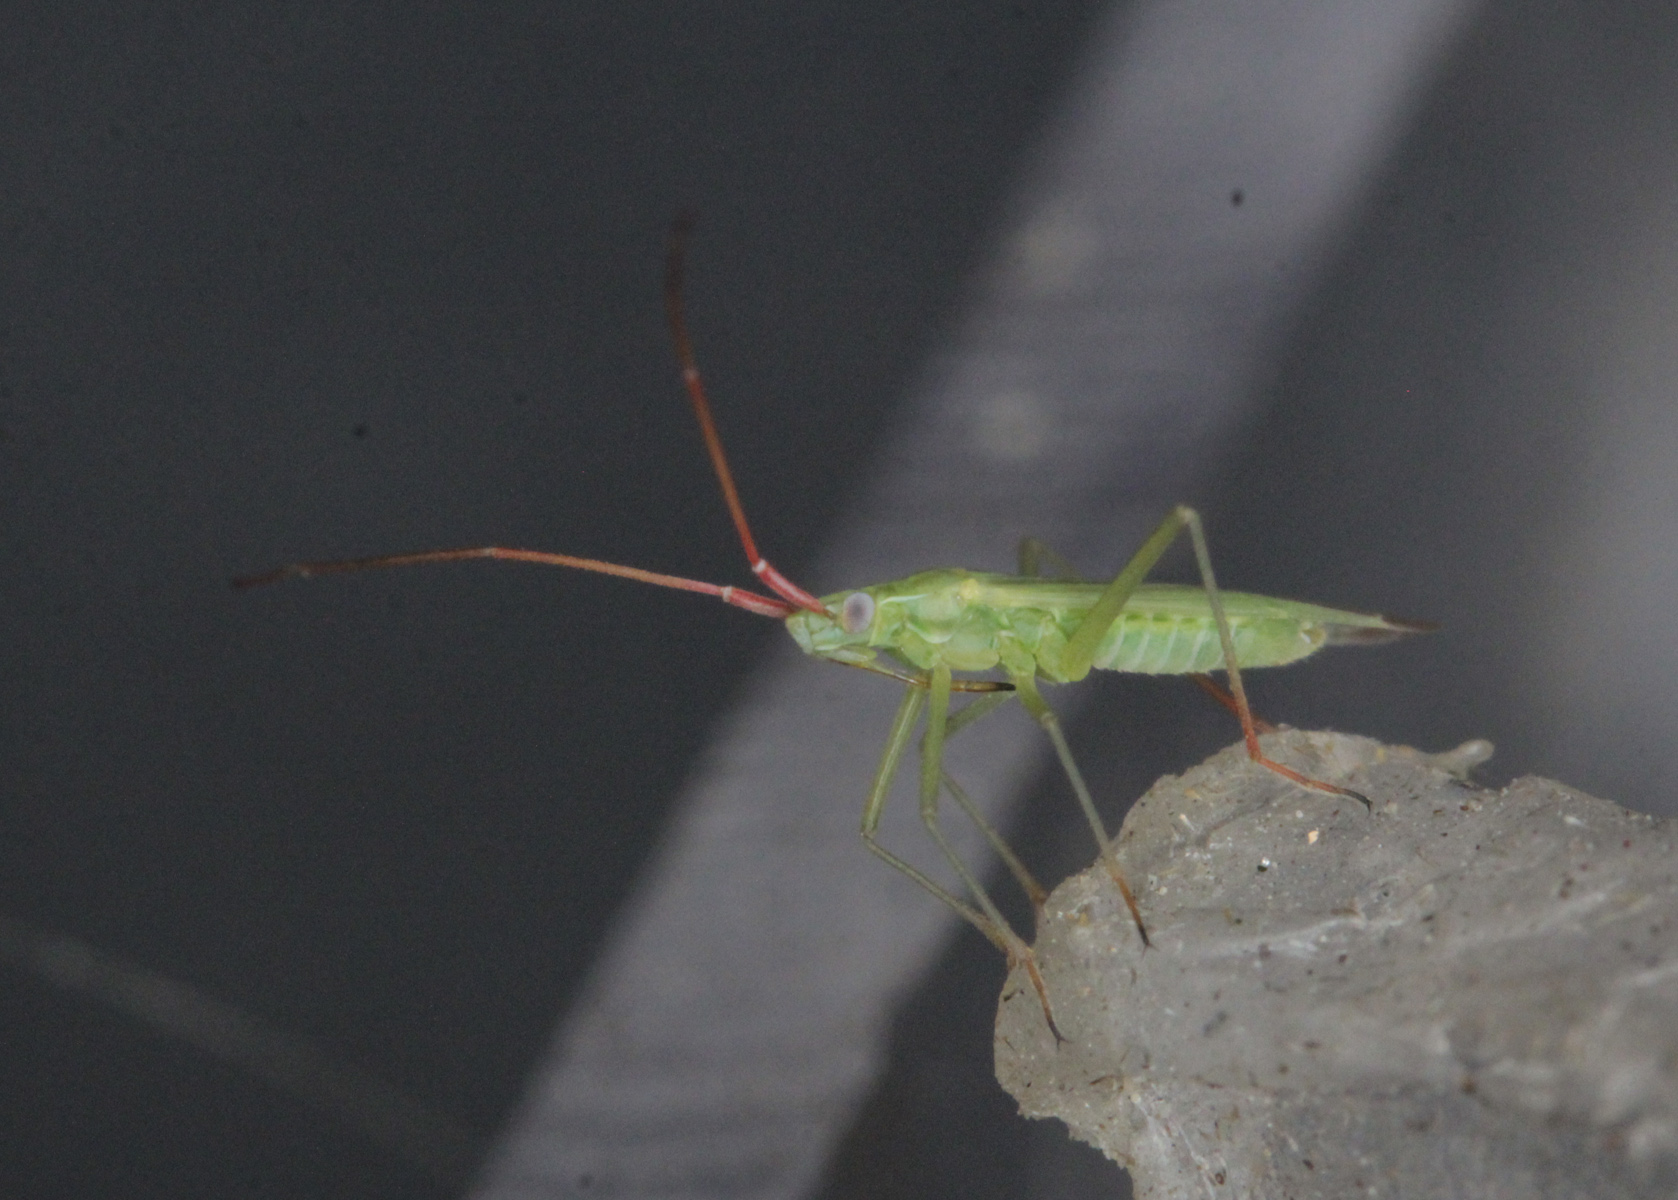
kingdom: Animalia
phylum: Arthropoda
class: Insecta
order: Hemiptera
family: Miridae
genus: Trigonotylus
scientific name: Trigonotylus caelestialium
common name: Rice leaf bug
